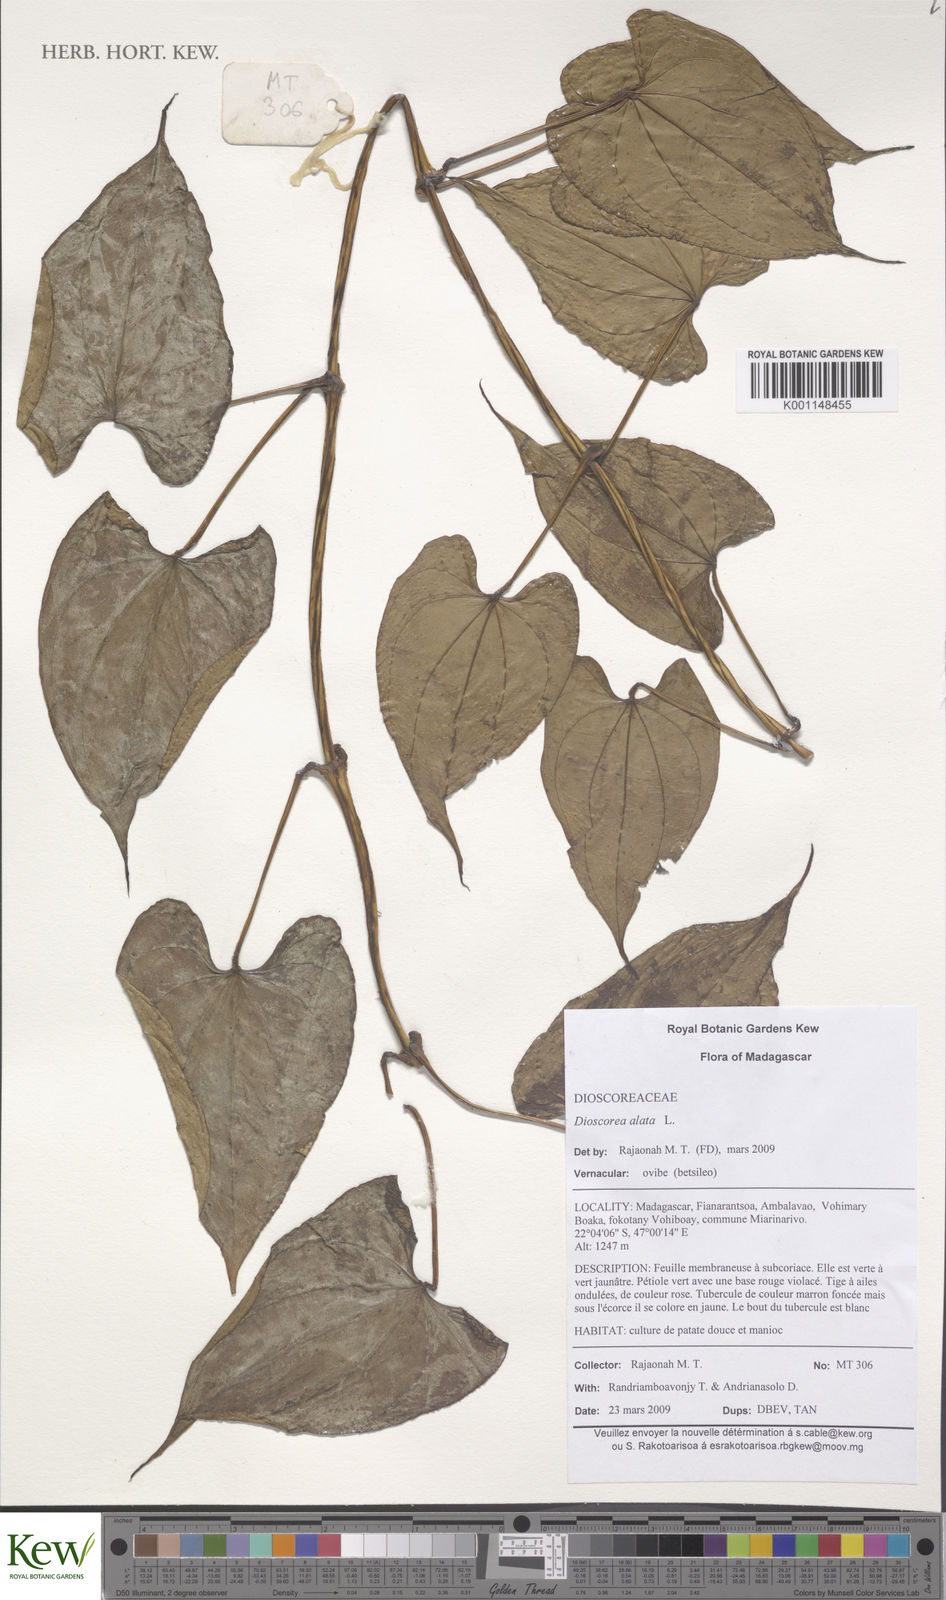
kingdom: Plantae
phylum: Tracheophyta
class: Liliopsida
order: Dioscoreales
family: Dioscoreaceae
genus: Dioscorea
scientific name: Dioscorea alata
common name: Water yam
